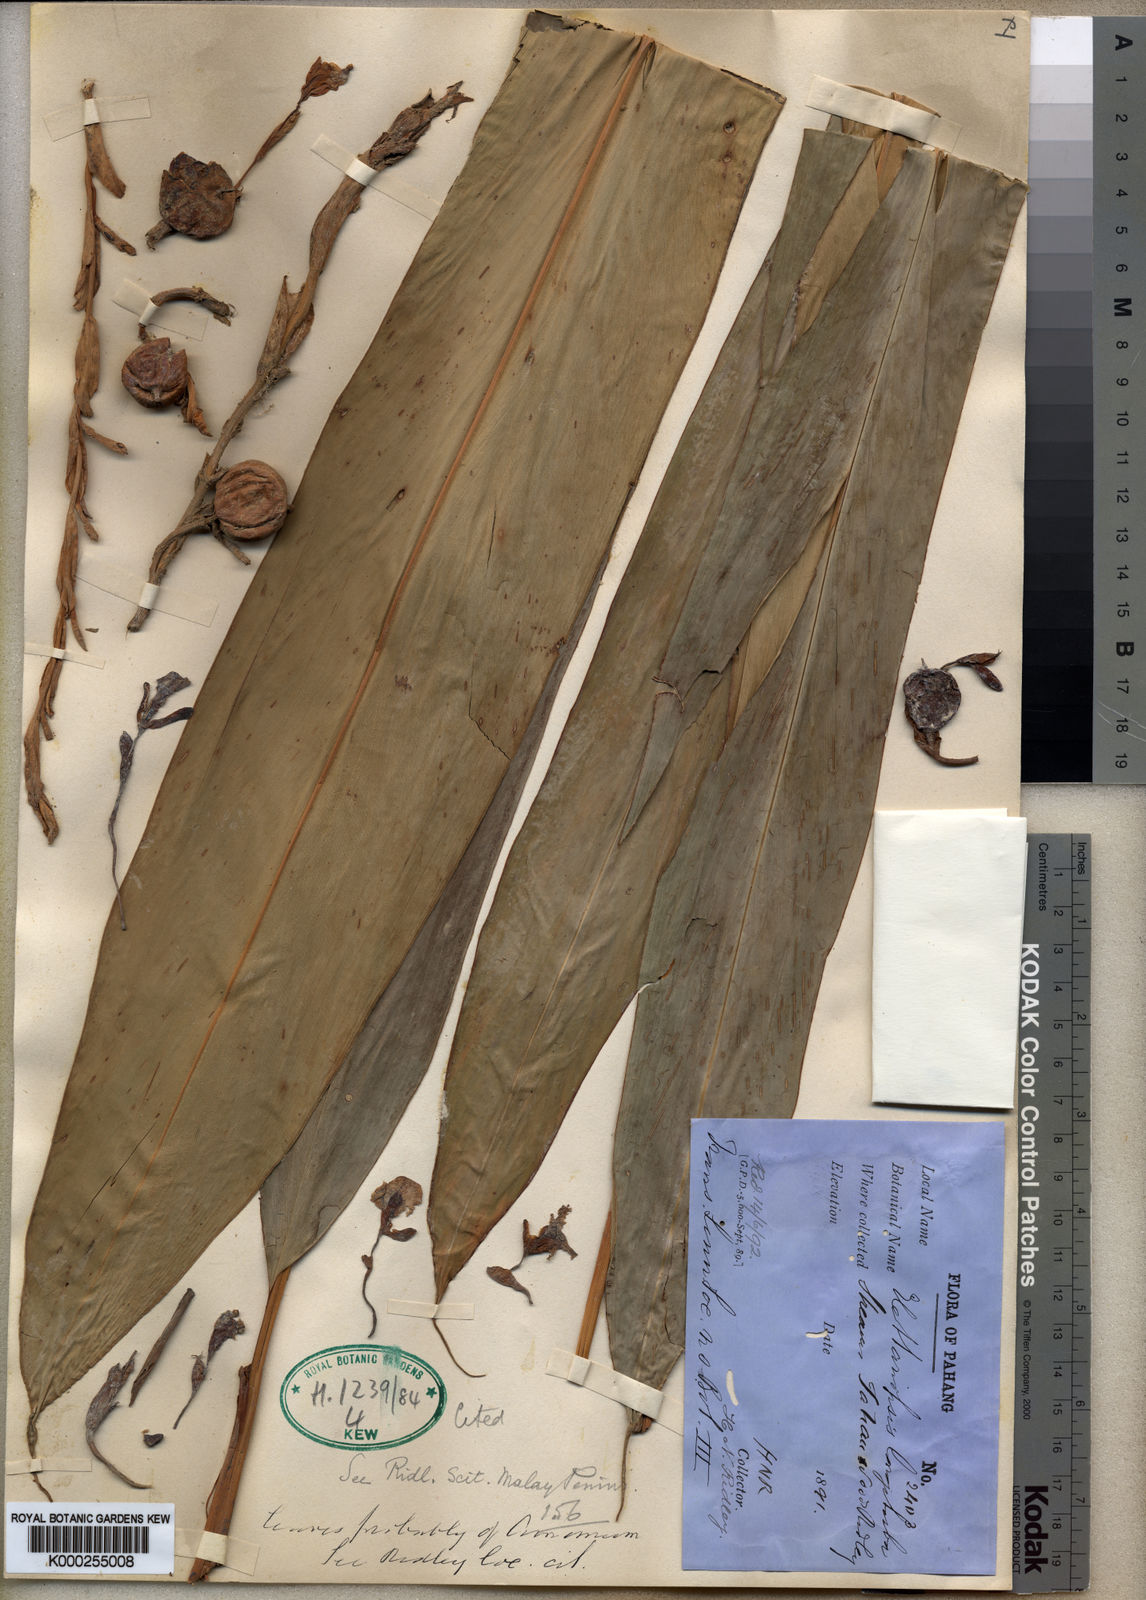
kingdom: Plantae
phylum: Tracheophyta
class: Liliopsida
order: Zingiberales
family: Zingiberaceae
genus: Sulettaria
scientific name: Sulettaria longituba
